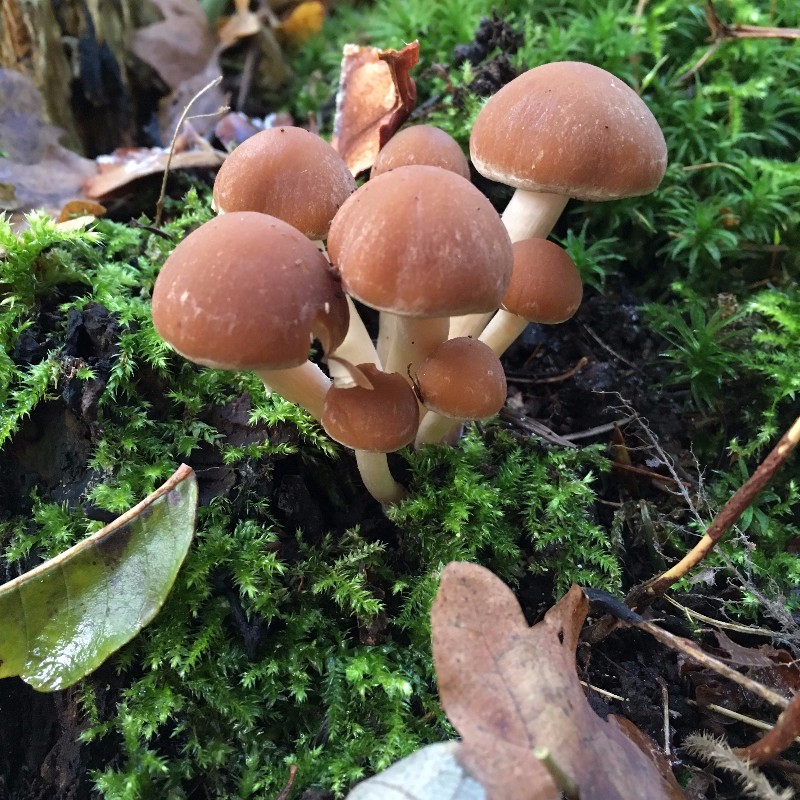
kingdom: Fungi
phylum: Basidiomycota
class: Agaricomycetes
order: Agaricales
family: Psathyrellaceae
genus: Psathyrella
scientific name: Psathyrella piluliformis
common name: lysstokket mørkhat
